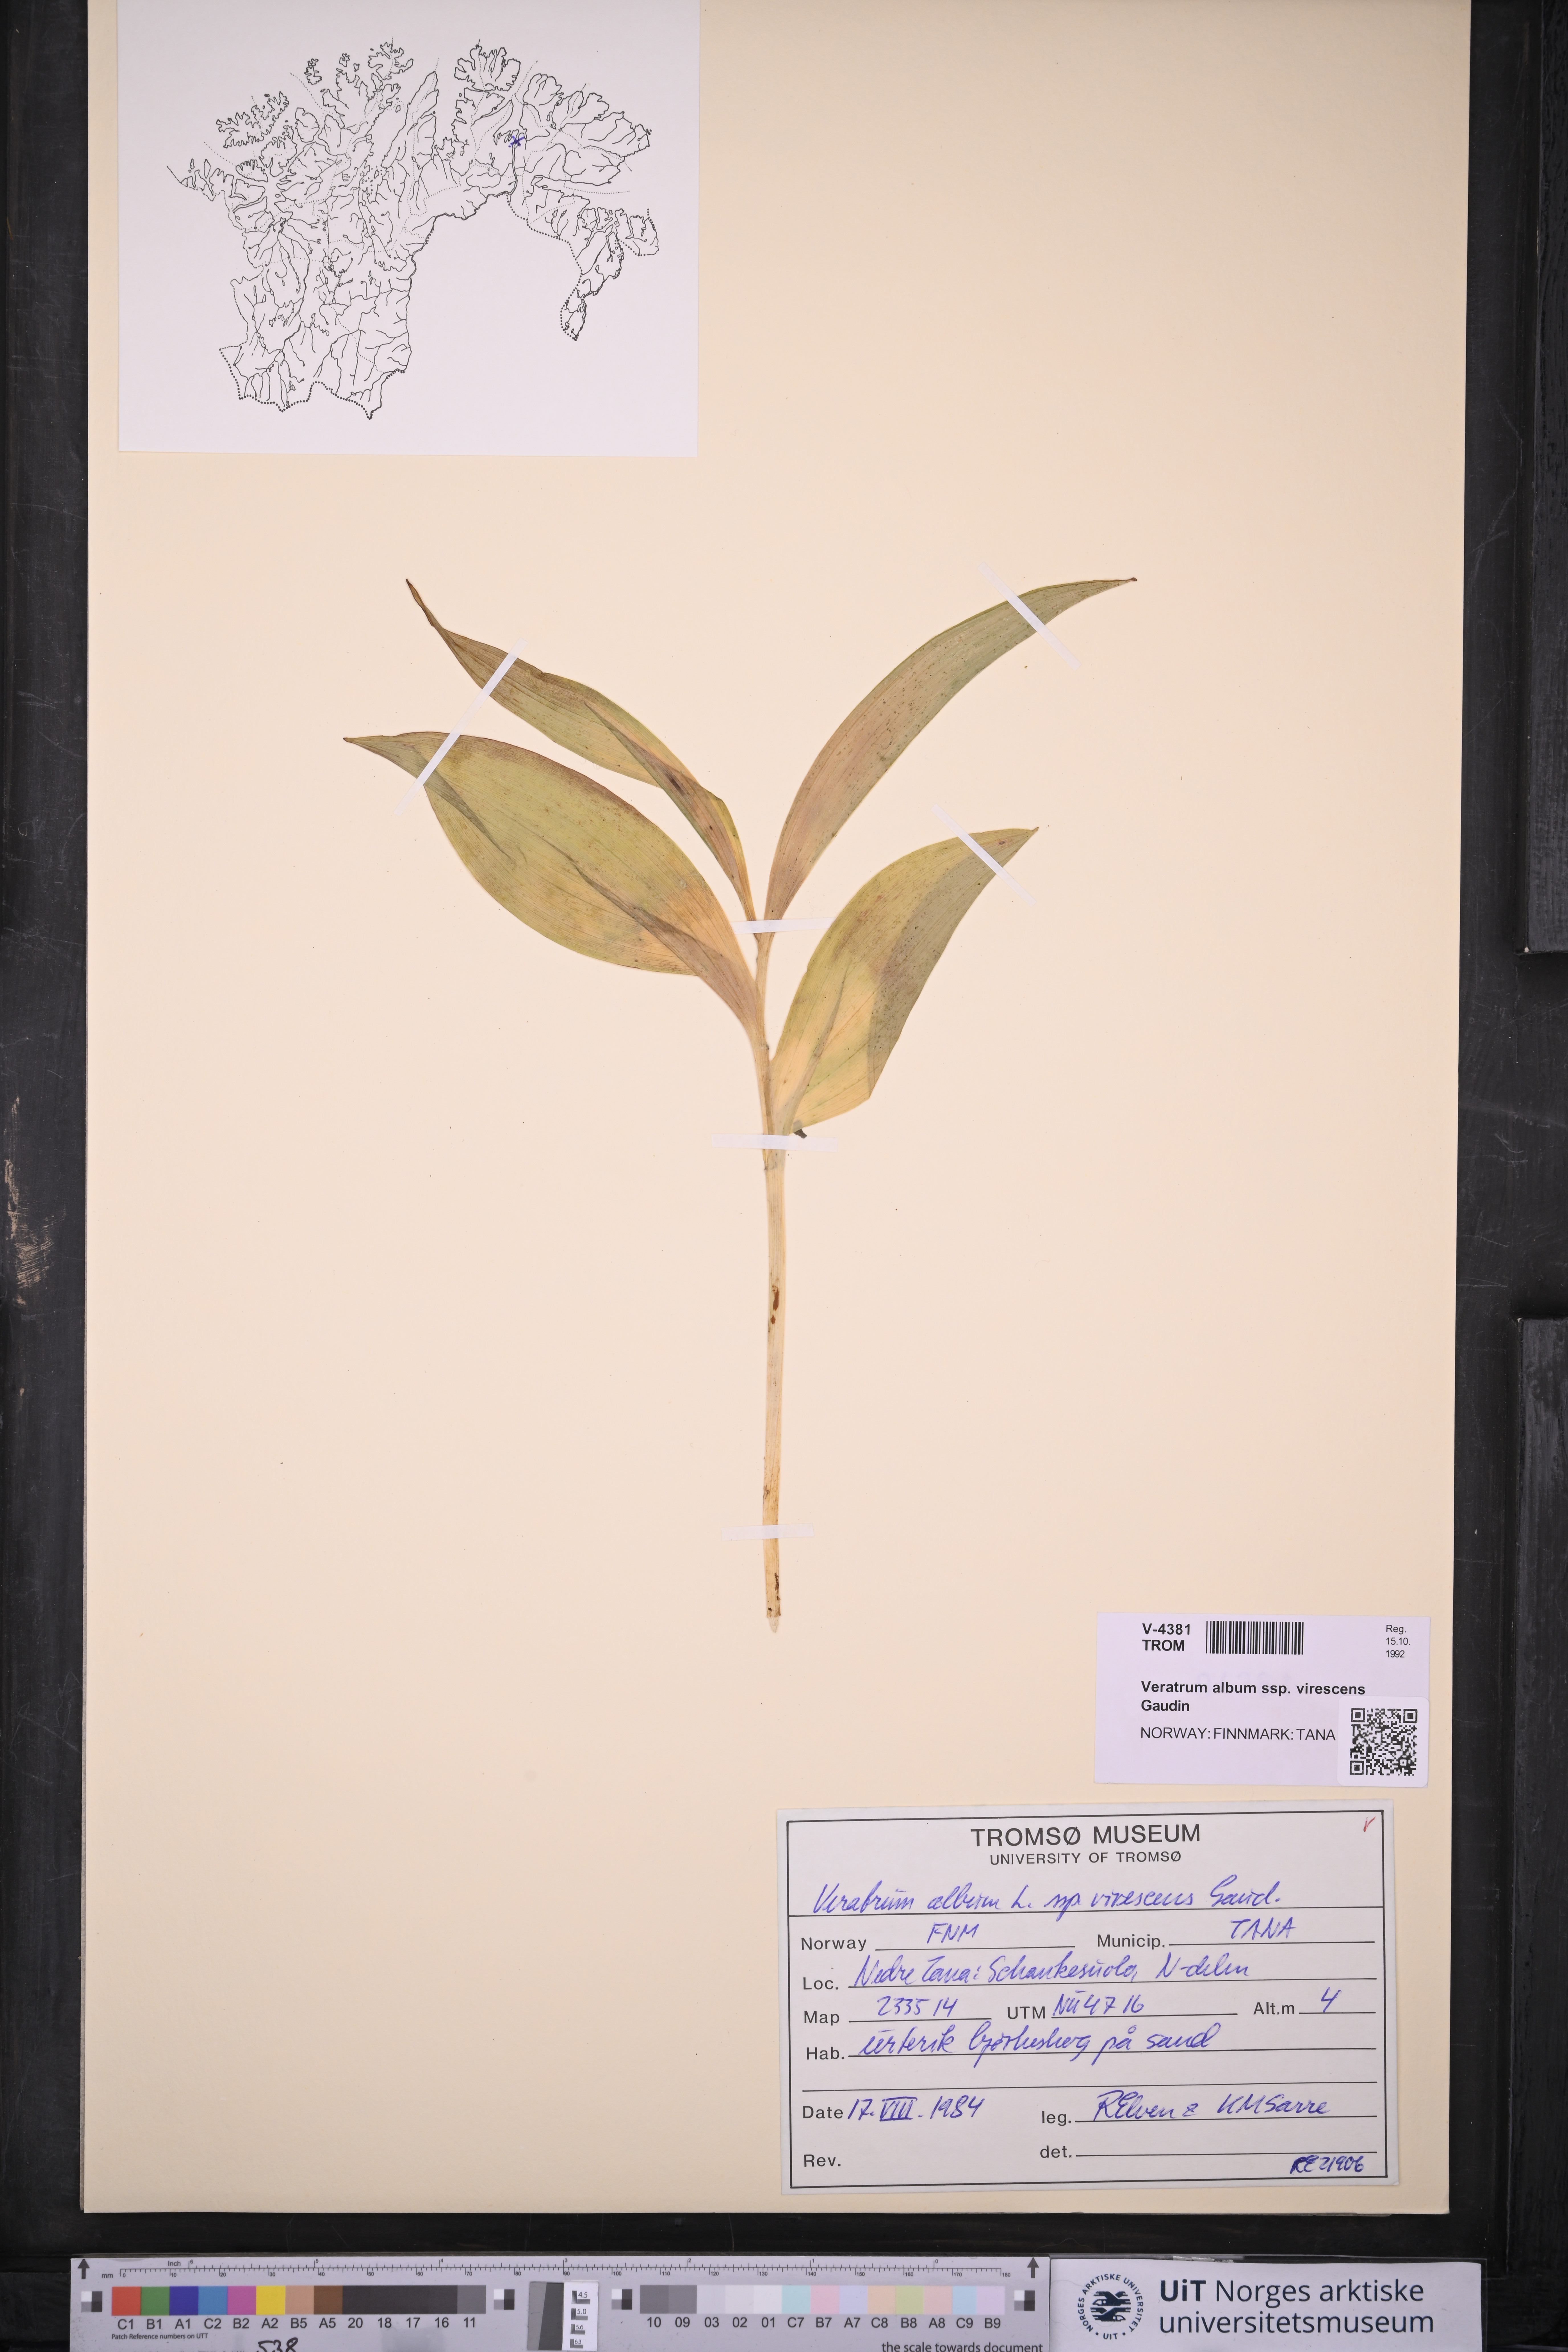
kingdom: Plantae
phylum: Tracheophyta
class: Liliopsida
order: Liliales
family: Melanthiaceae
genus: Veratrum
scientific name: Veratrum lobelianum
